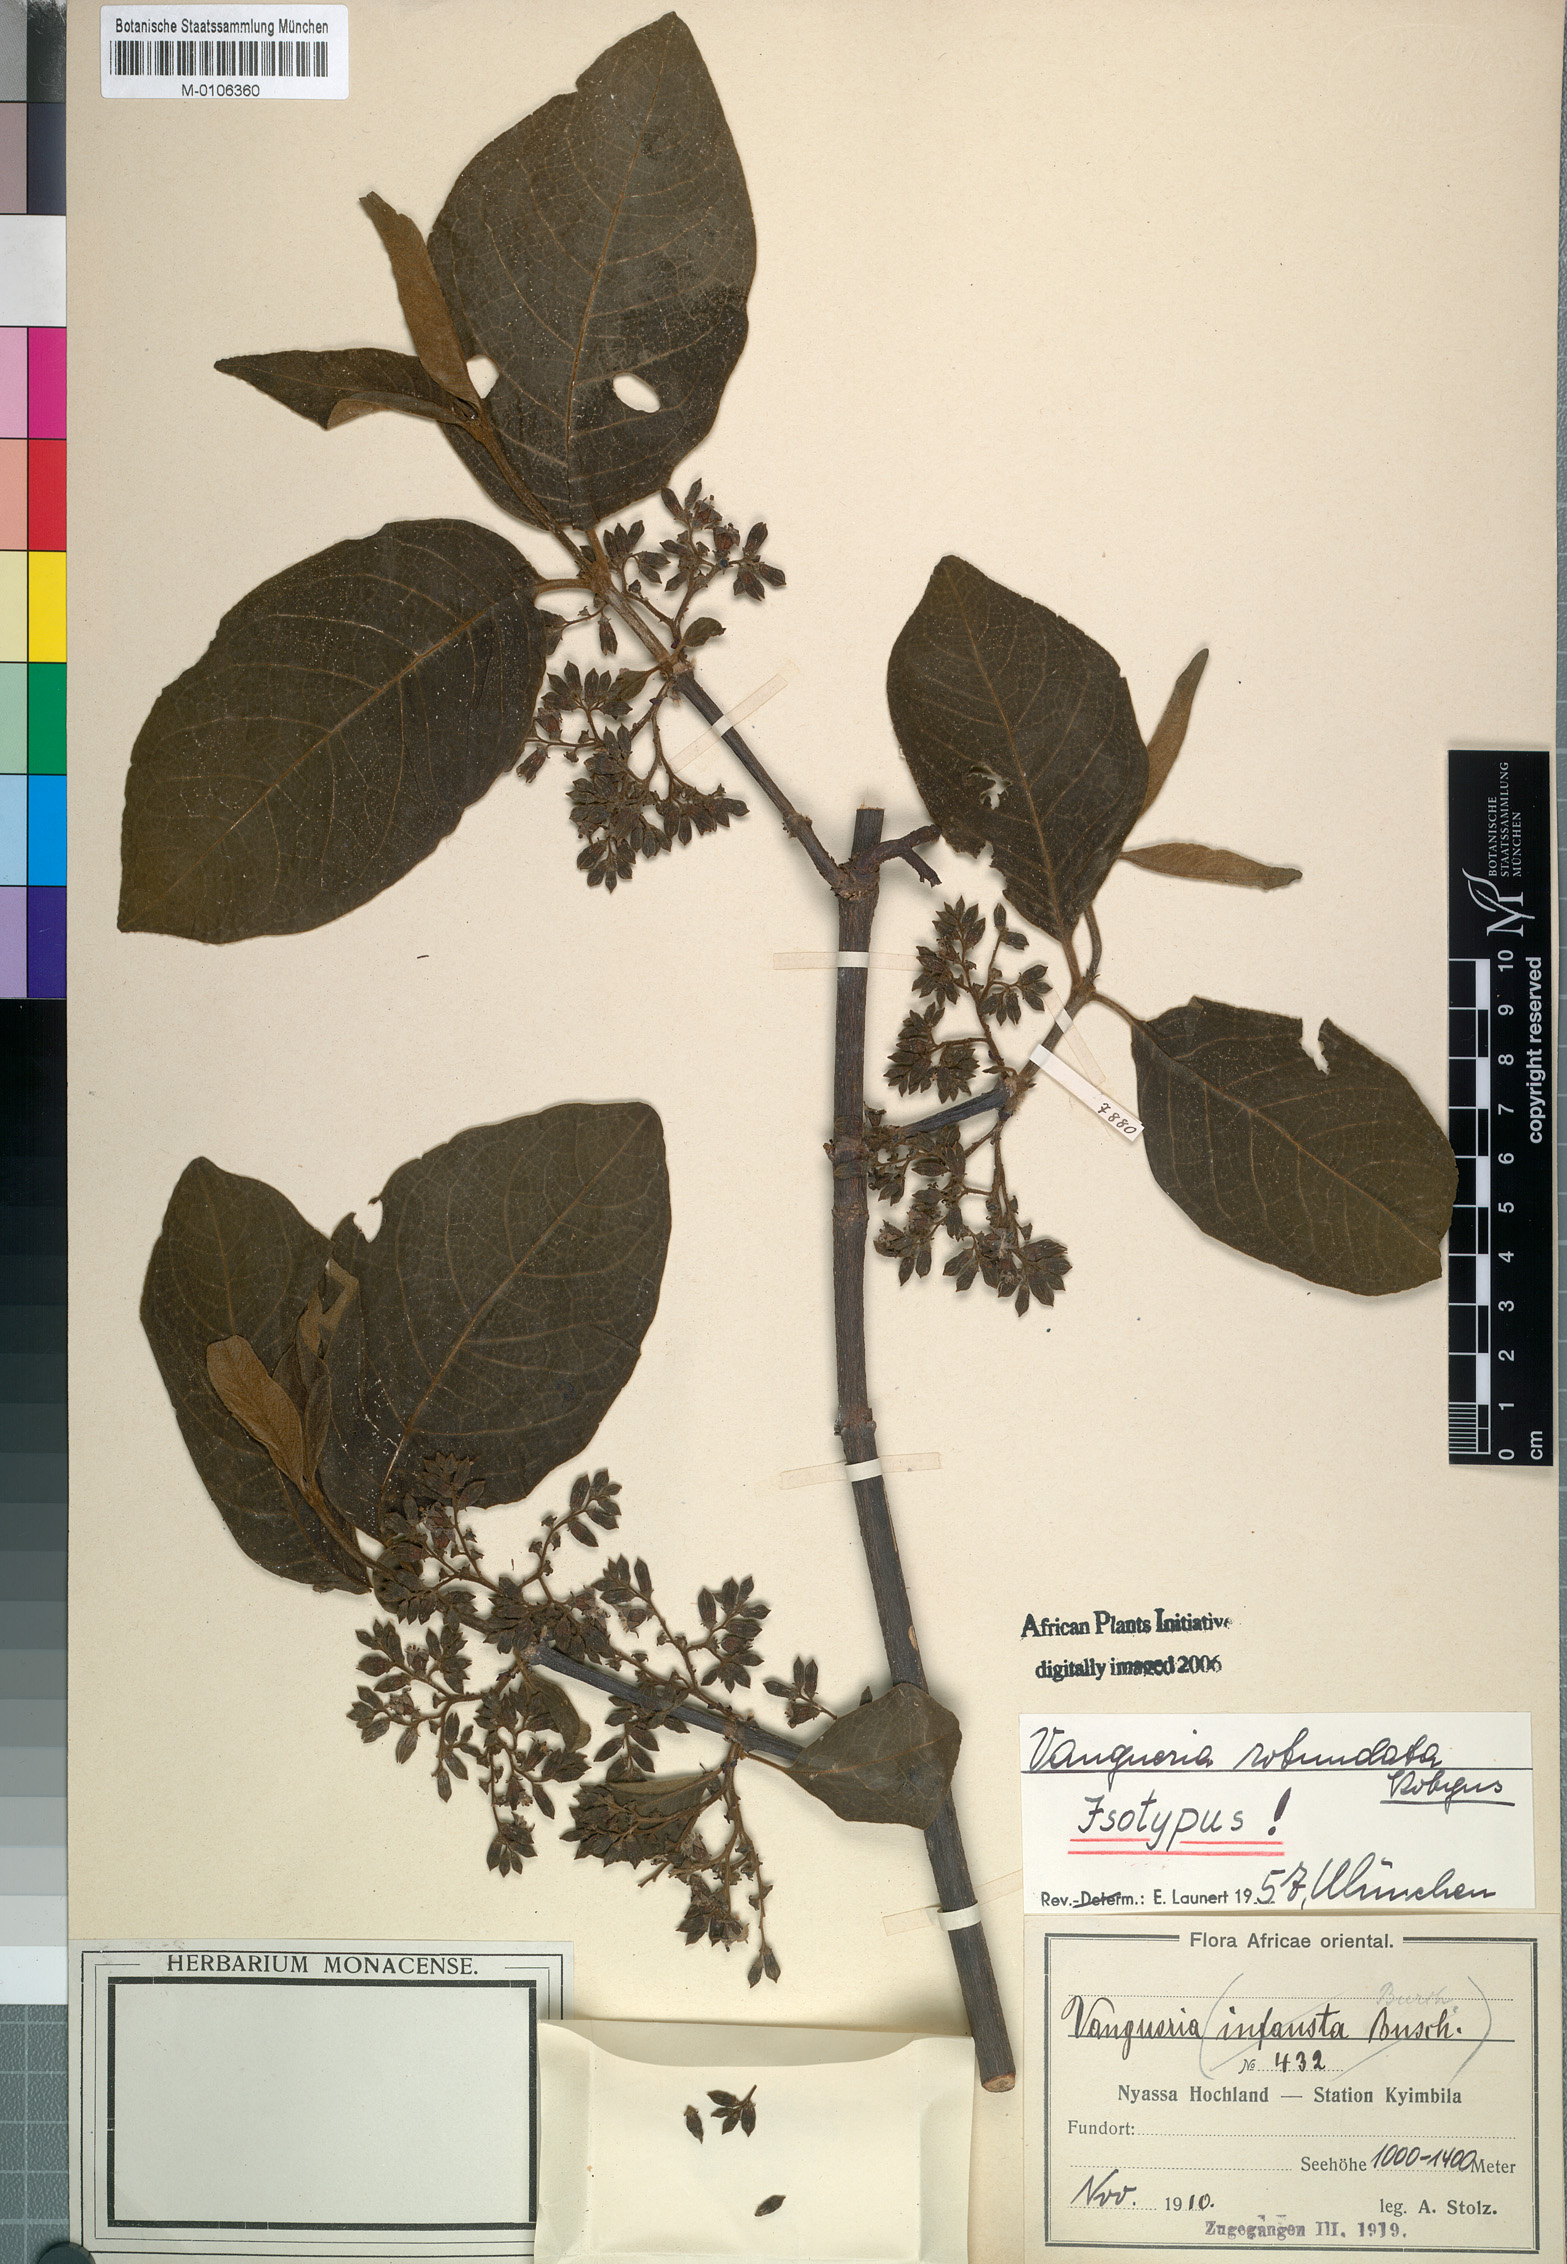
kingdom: Plantae
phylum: Tracheophyta
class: Magnoliopsida
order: Gentianales
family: Rubiaceae
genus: Vangueria
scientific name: Vangueria infausta
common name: Medlar
